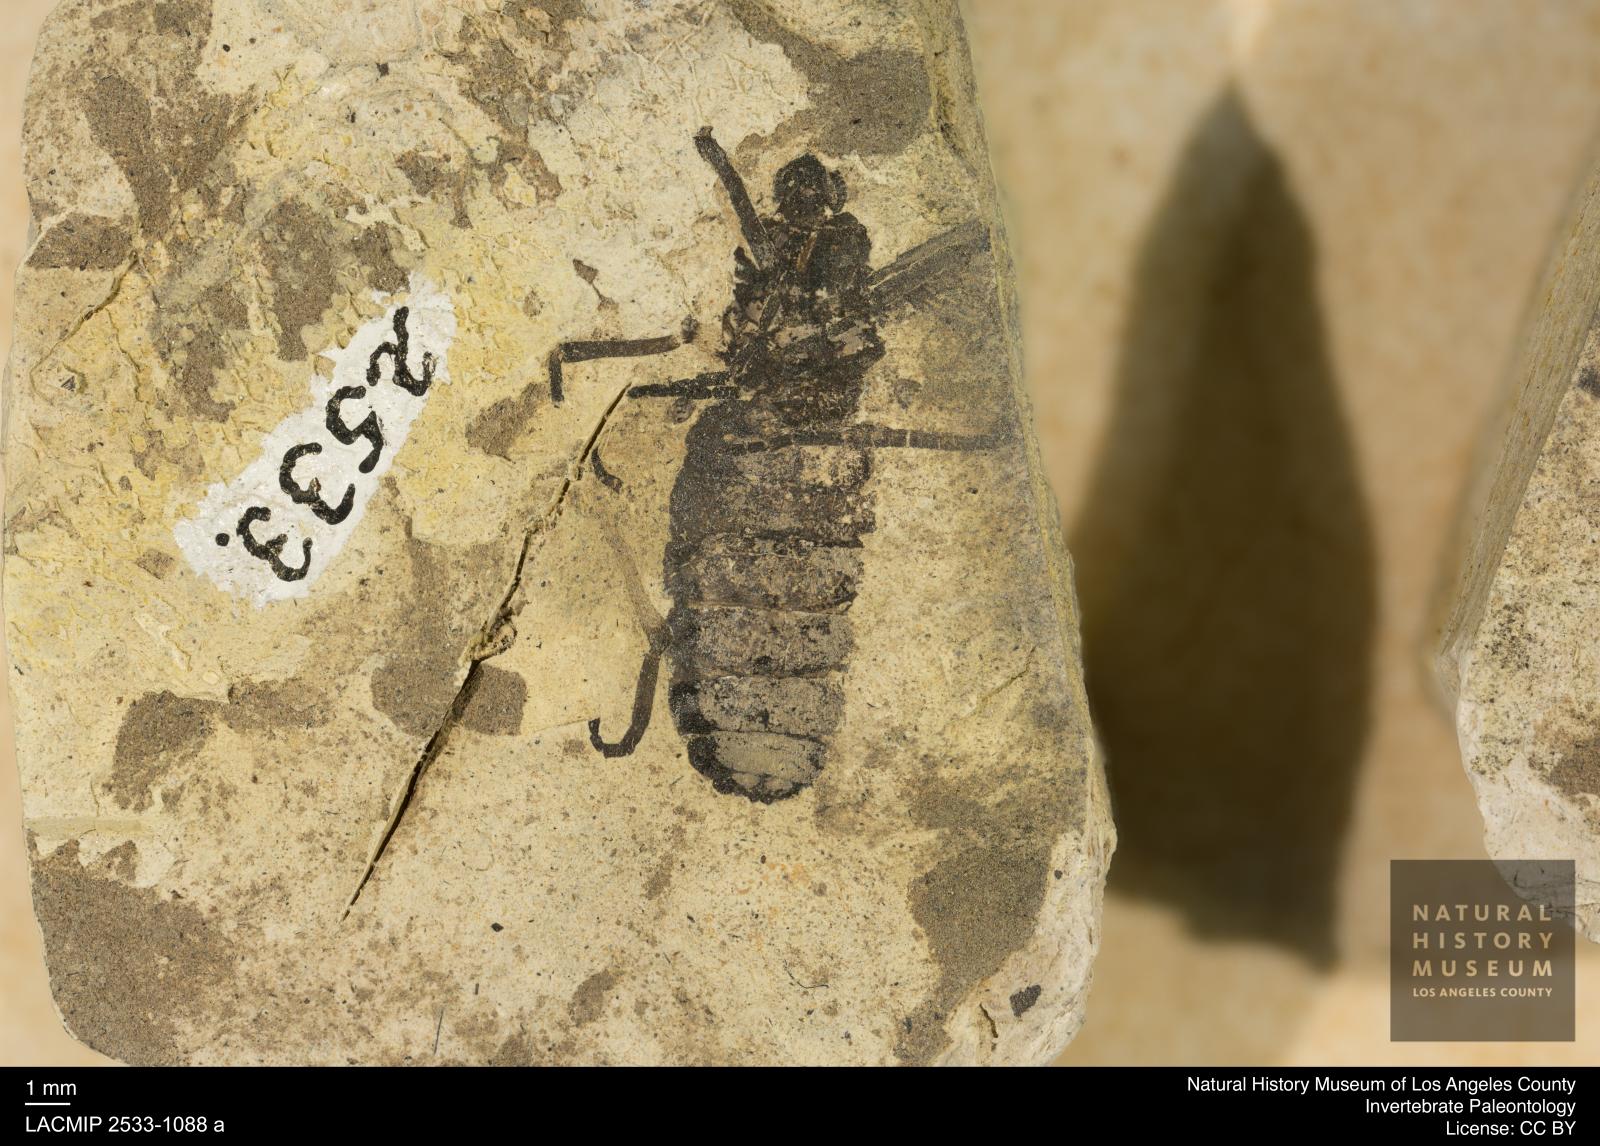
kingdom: Animalia
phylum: Arthropoda
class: Insecta
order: Diptera
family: Bibionidae
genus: Plecia
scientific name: Plecia dubia
